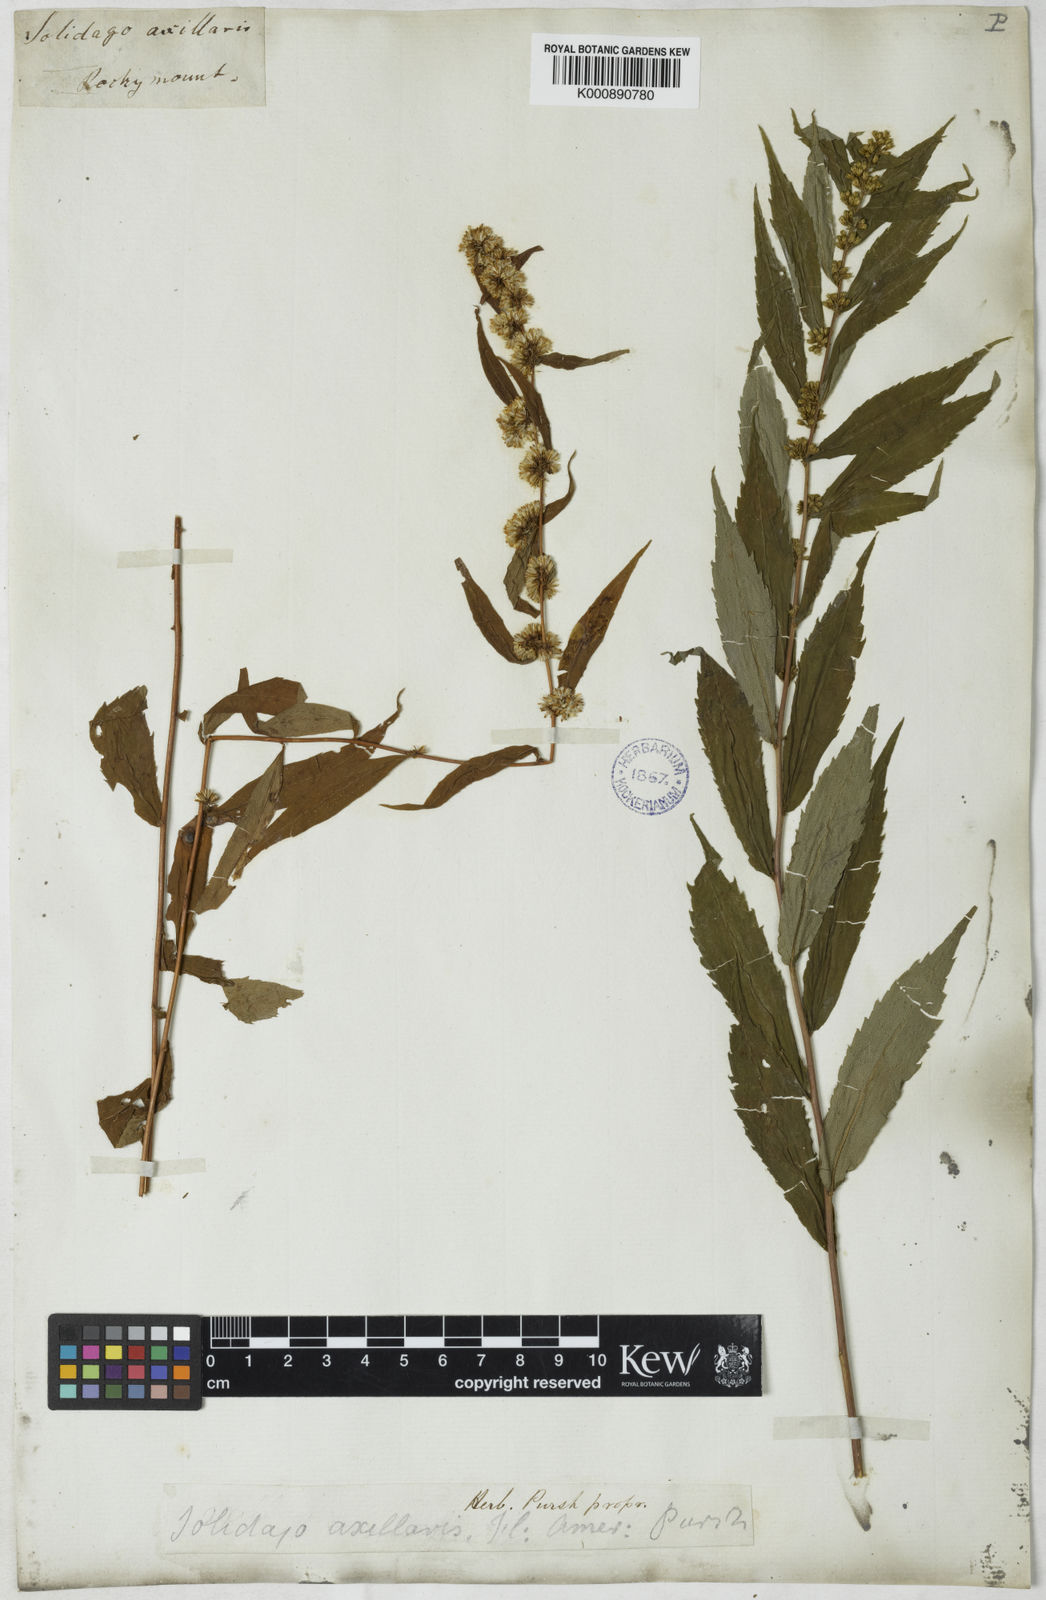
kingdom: Plantae
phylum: Tracheophyta
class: Magnoliopsida
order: Asterales
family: Asteraceae
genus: Solidago
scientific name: Solidago caesia
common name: Woodland goldenrod
